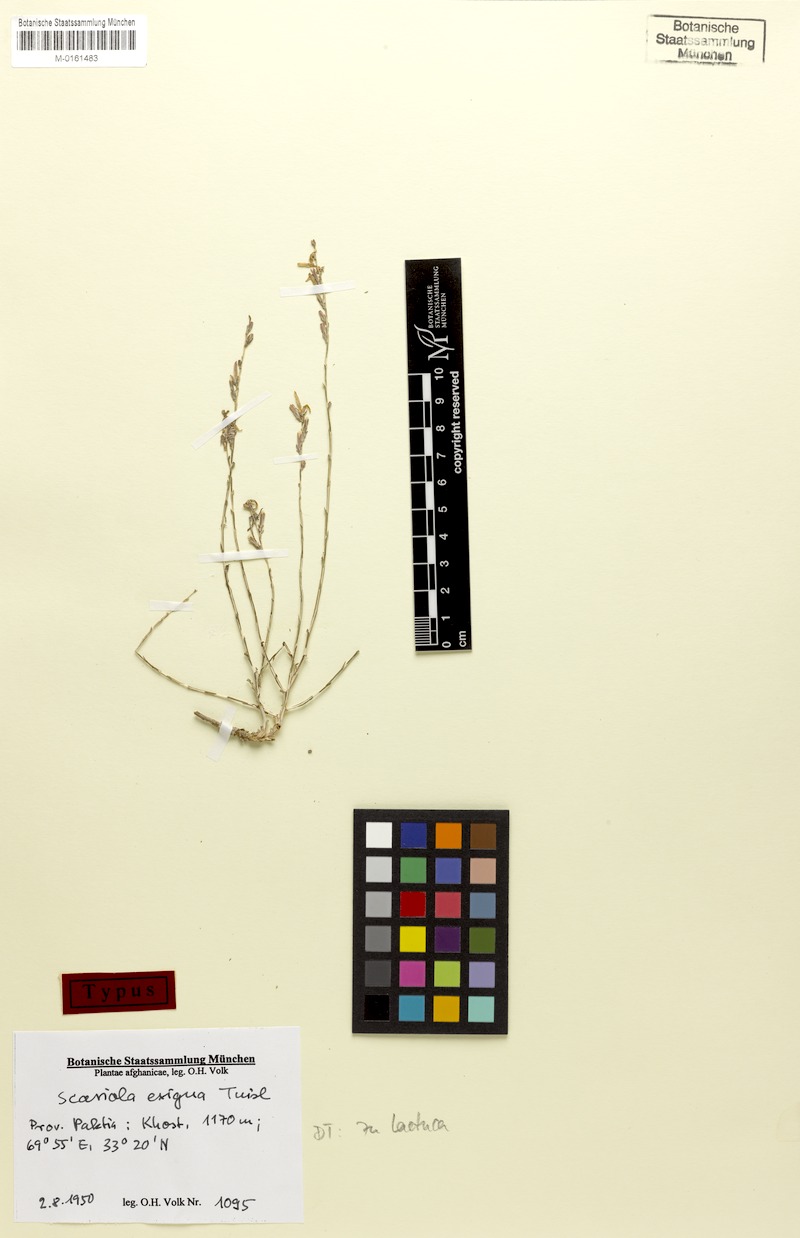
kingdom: Plantae
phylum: Tracheophyta
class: Magnoliopsida
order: Asterales
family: Asteraceae
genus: Lactuca
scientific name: Lactuca orientalis
